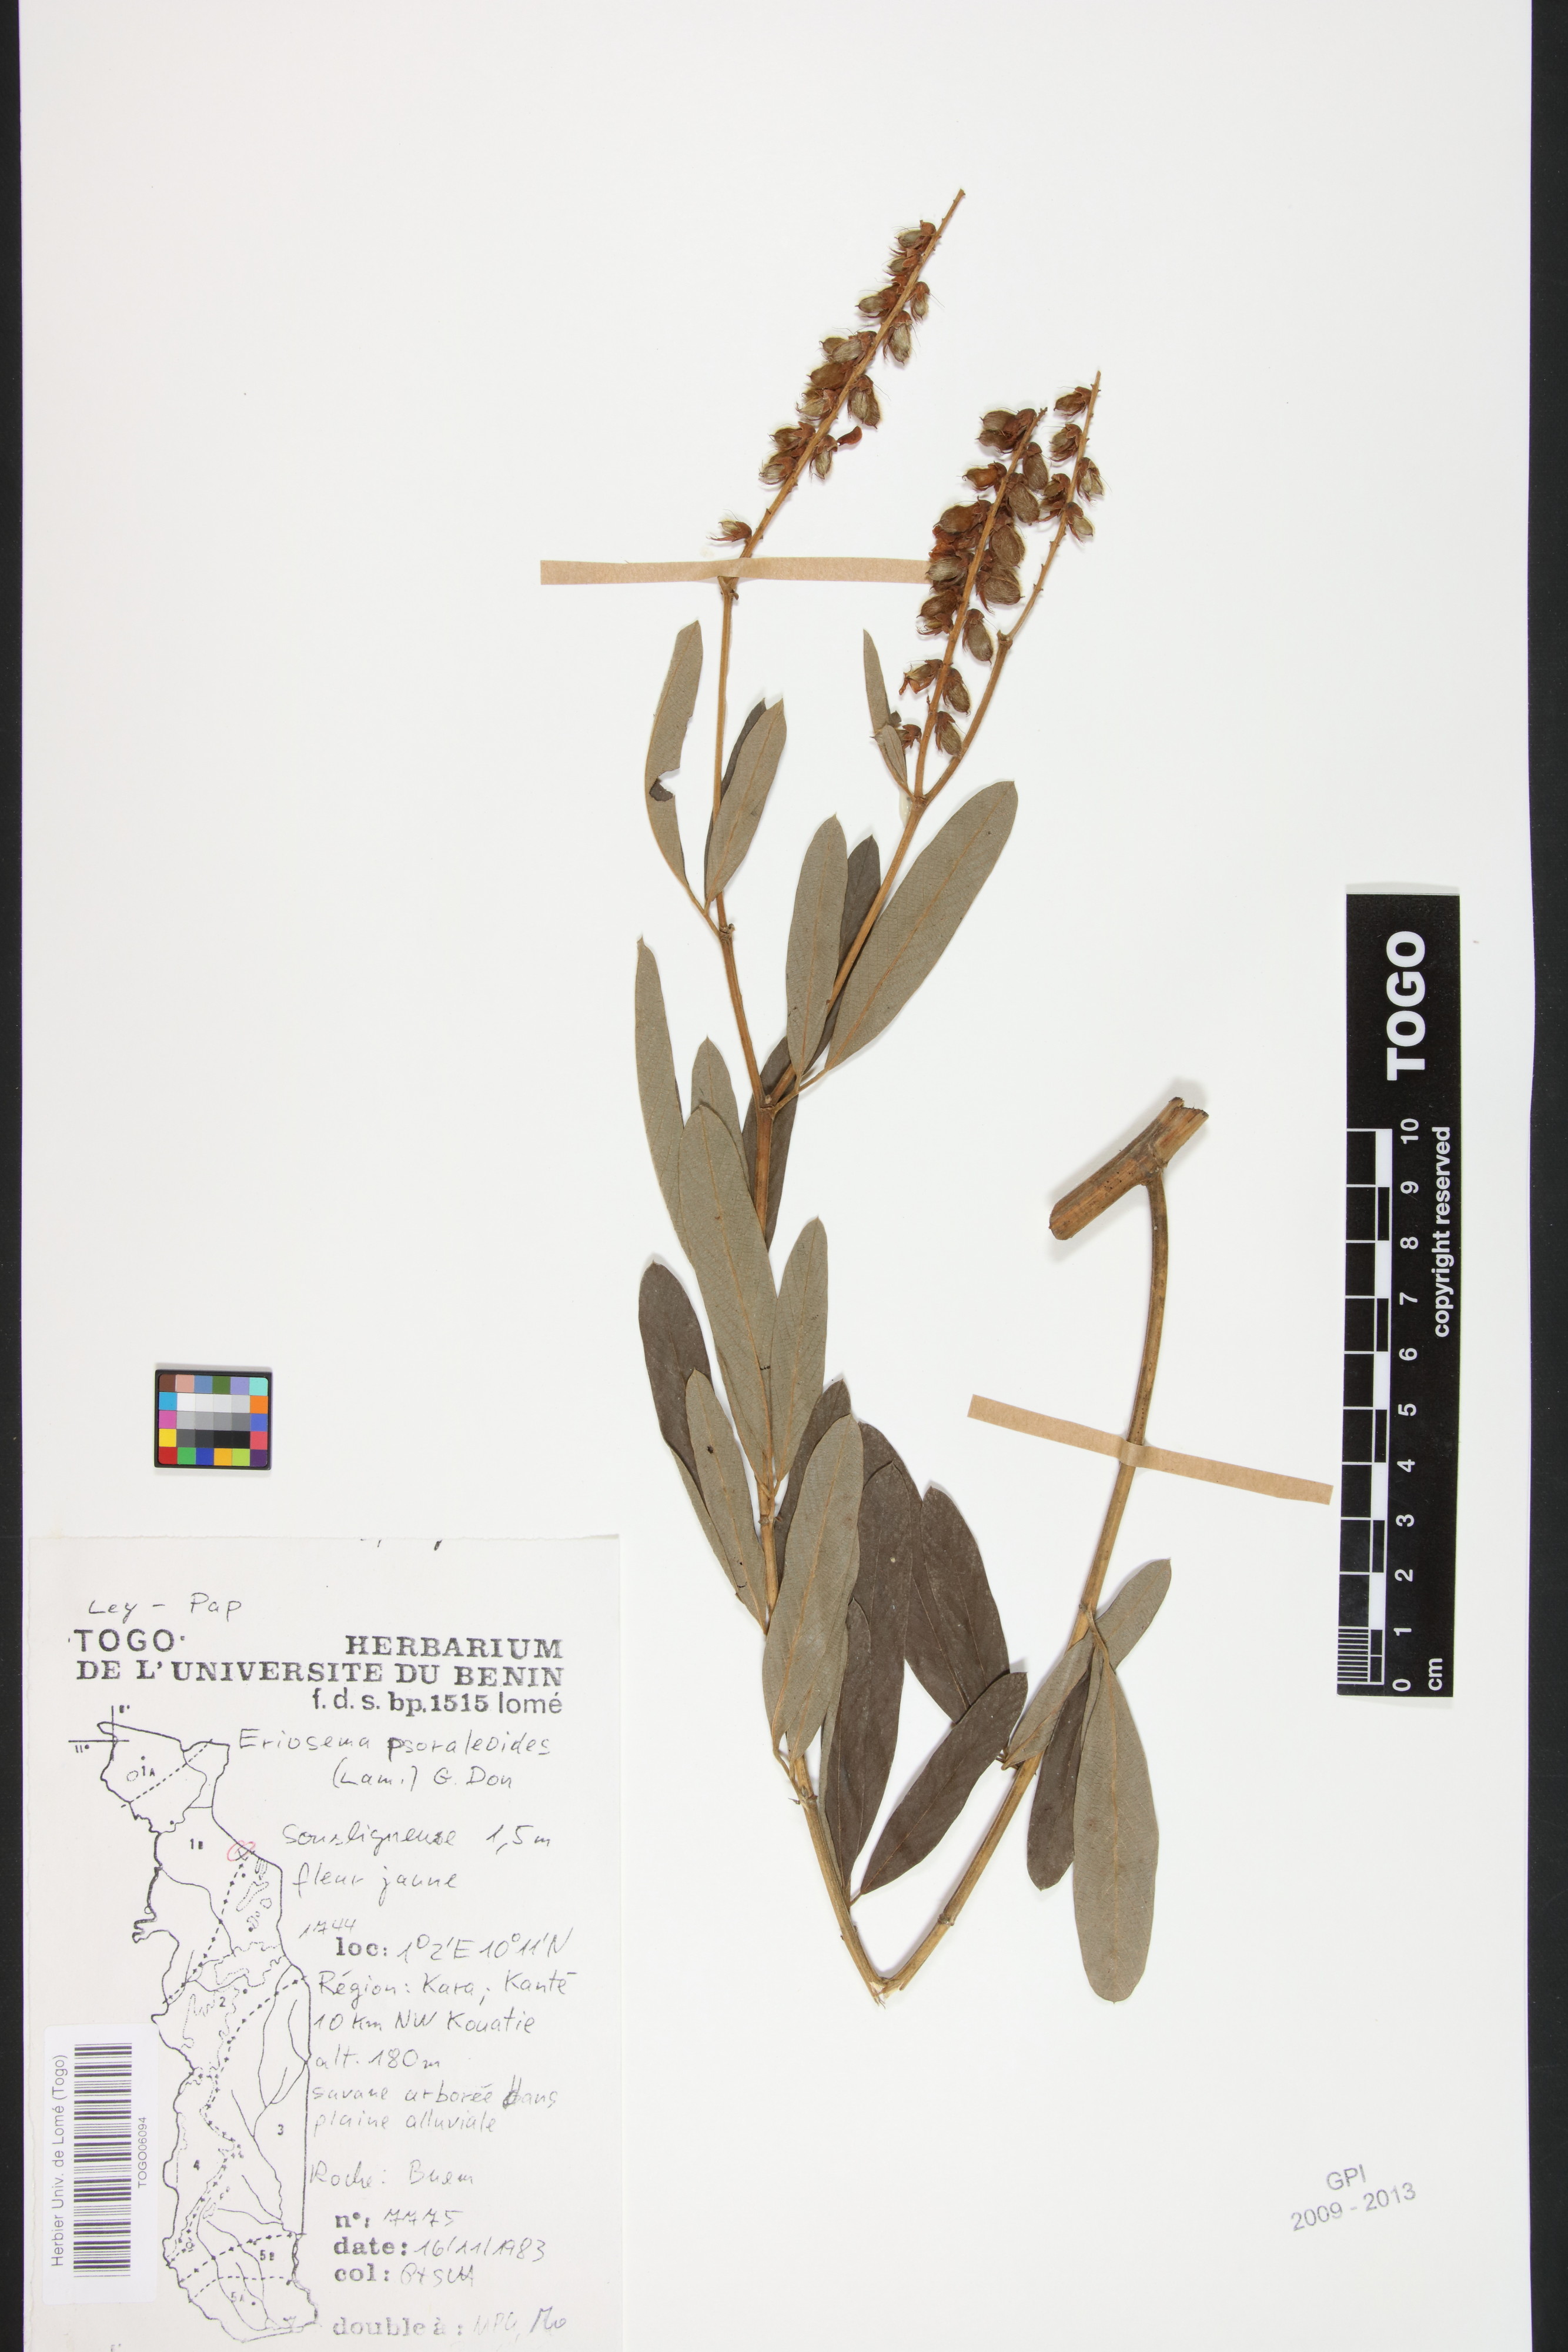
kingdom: Plantae
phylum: Tracheophyta
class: Magnoliopsida
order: Fabales
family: Fabaceae
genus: Eriosema
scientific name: Eriosema psoraleoides
